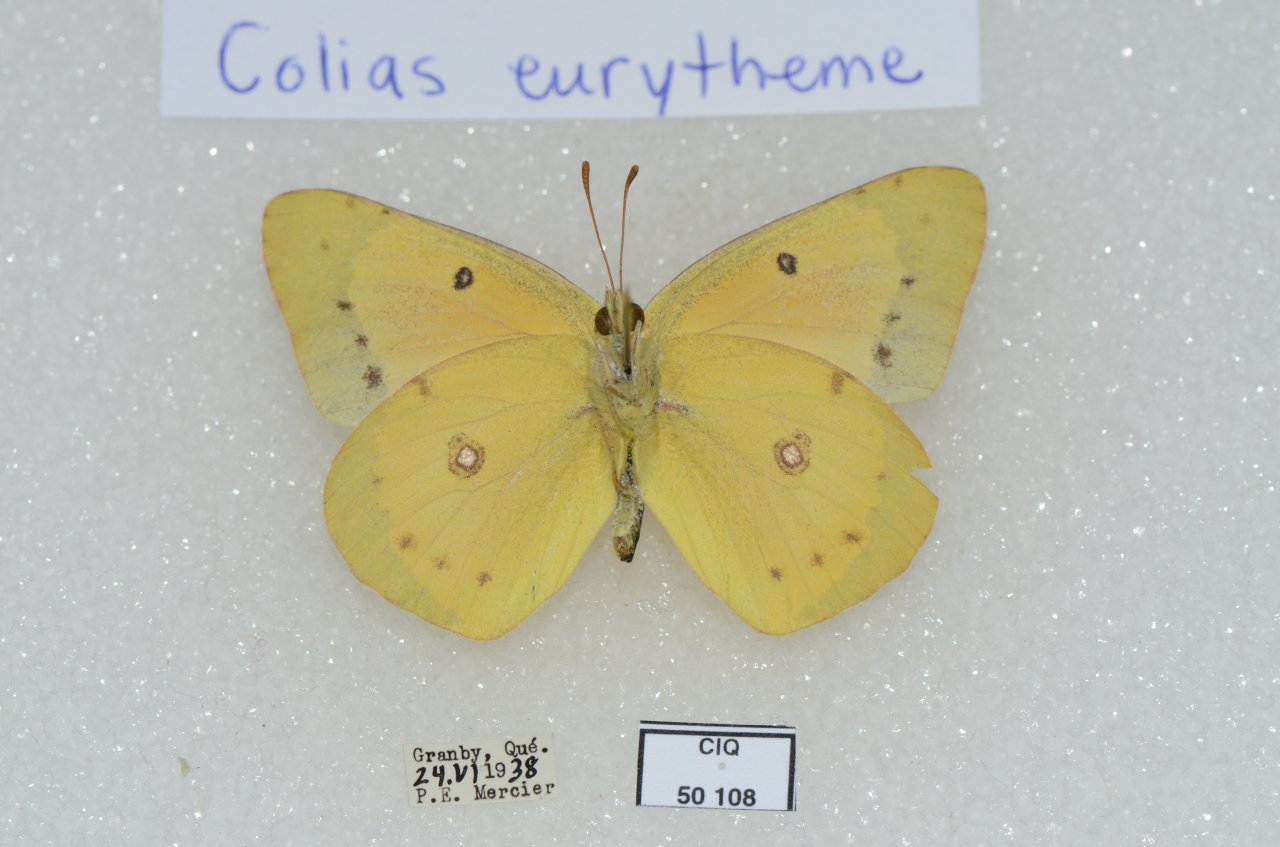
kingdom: Animalia
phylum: Arthropoda
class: Insecta
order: Lepidoptera
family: Pieridae
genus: Colias
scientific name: Colias eurytheme
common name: Orange Sulphur
